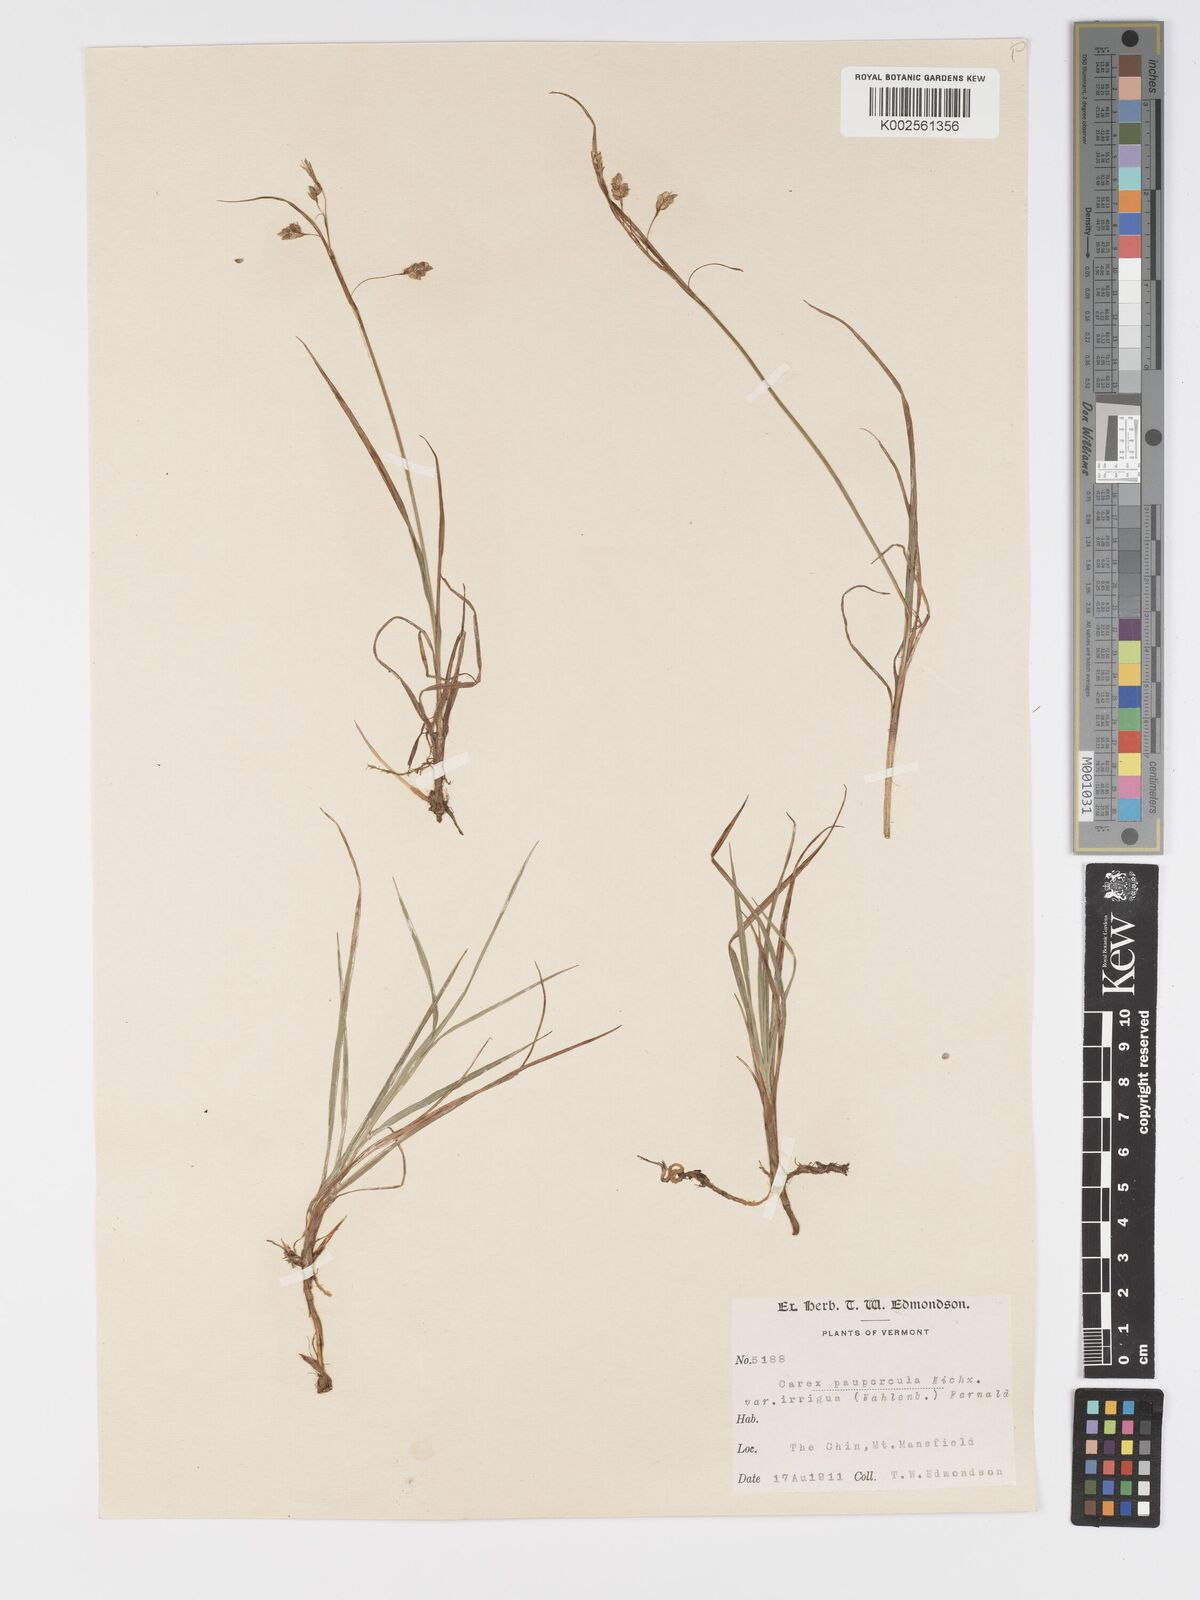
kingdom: Plantae
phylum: Tracheophyta
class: Liliopsida
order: Poales
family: Cyperaceae
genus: Carex
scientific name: Carex magellanica
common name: Bog sedge
